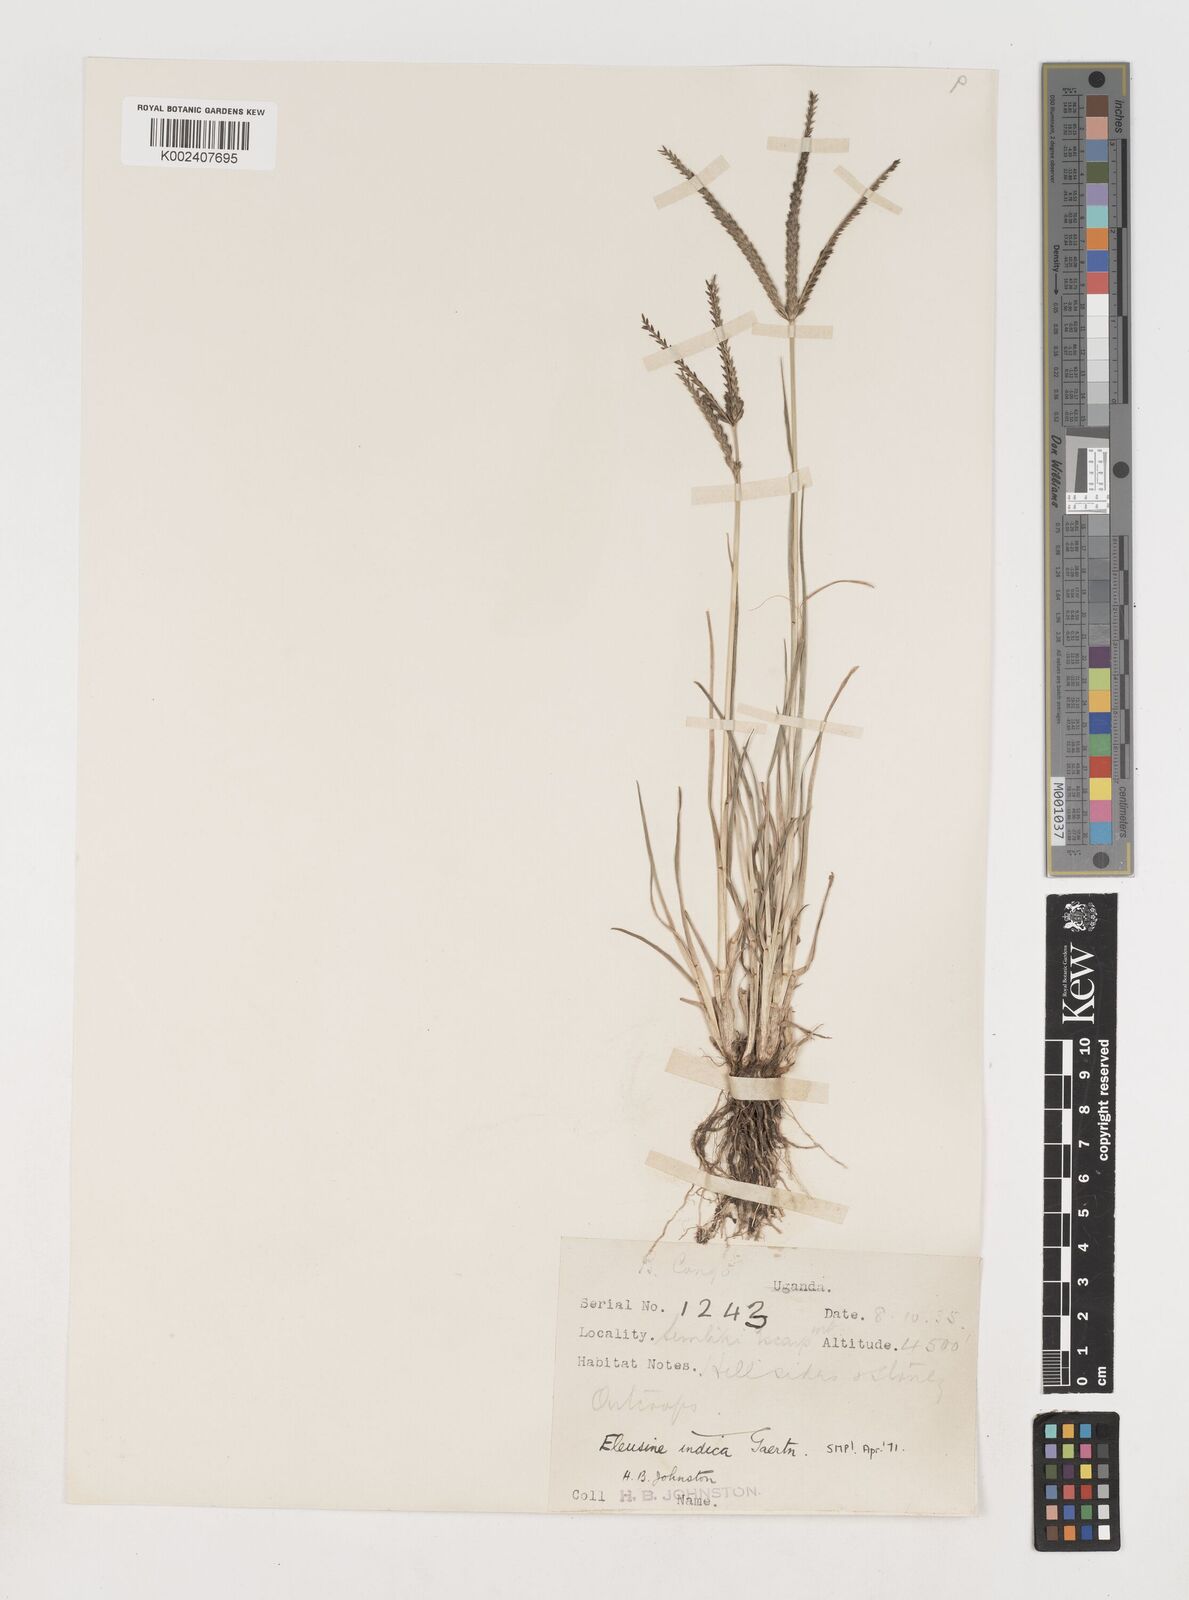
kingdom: Plantae
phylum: Tracheophyta
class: Liliopsida
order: Poales
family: Poaceae
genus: Eleusine
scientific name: Eleusine indica
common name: Yard-grass
